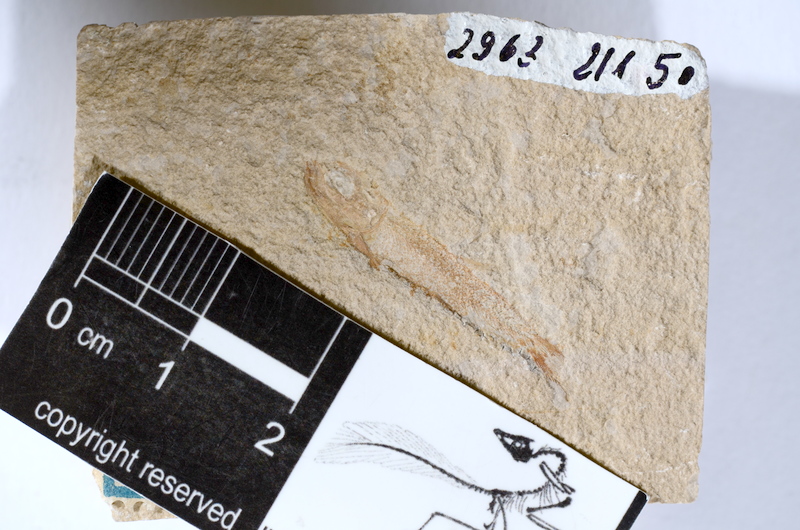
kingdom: Animalia
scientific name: Animalia
